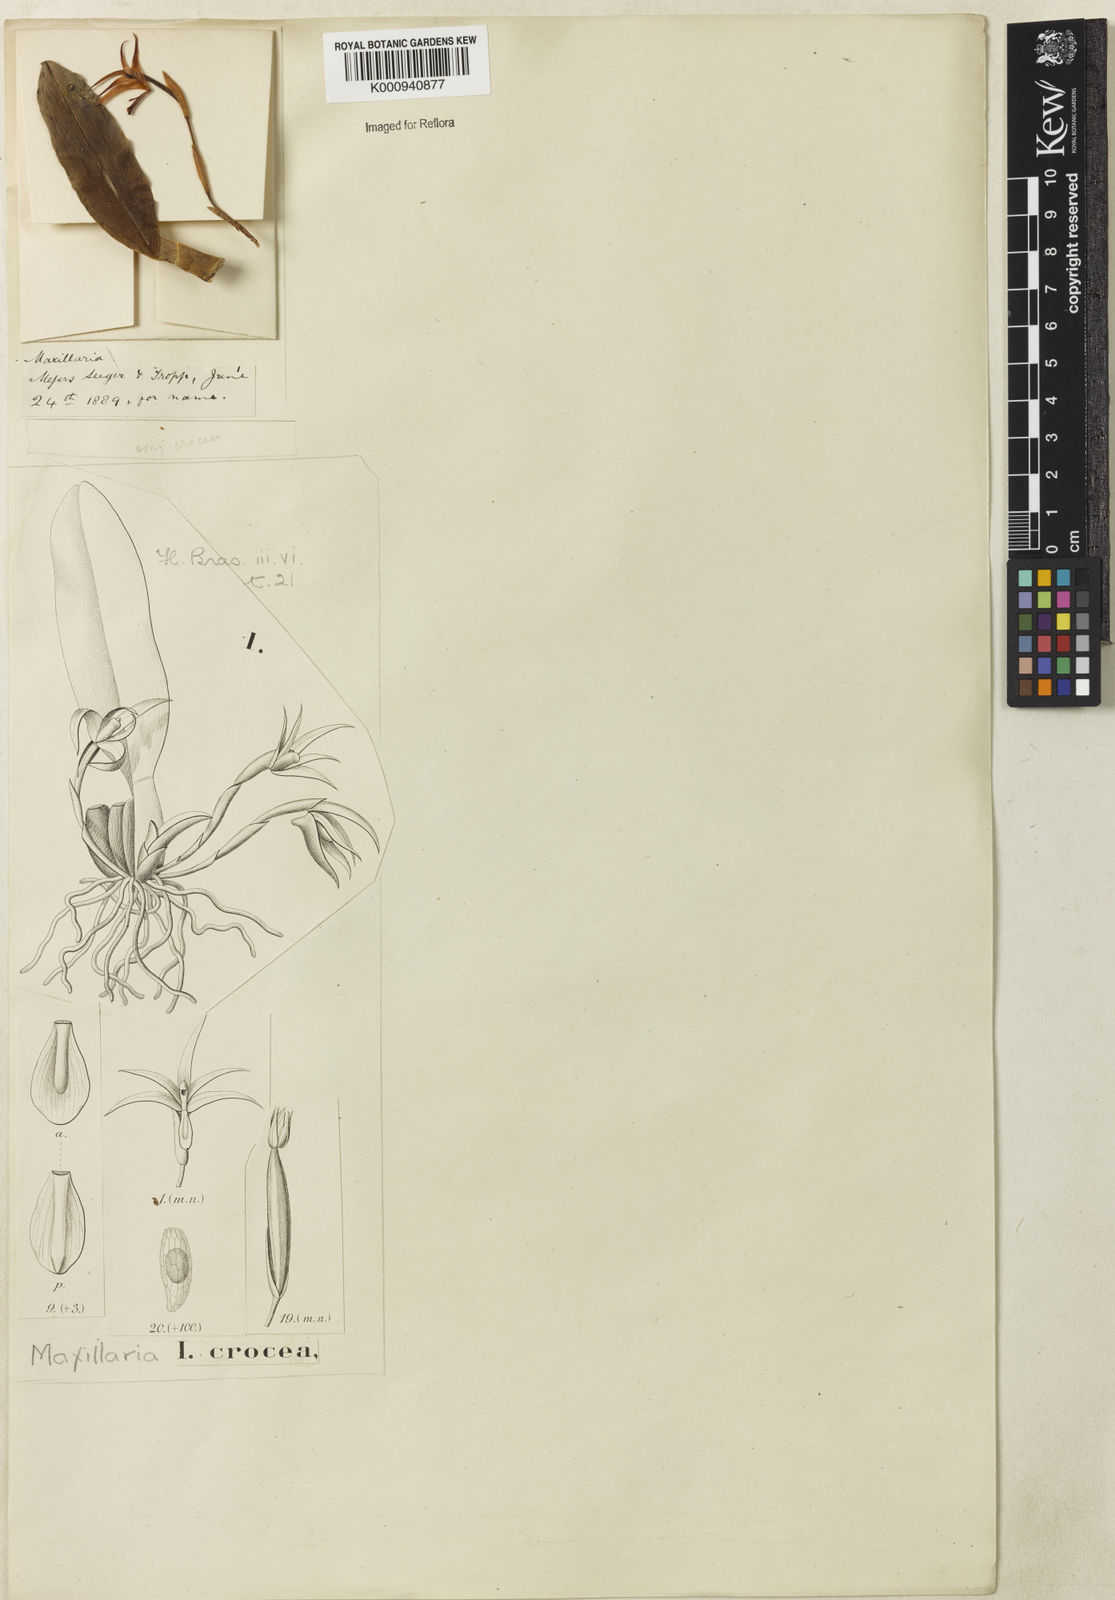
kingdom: Plantae
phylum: Tracheophyta
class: Liliopsida
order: Asparagales
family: Orchidaceae
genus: Maxillaria
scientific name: Maxillaria crocea
